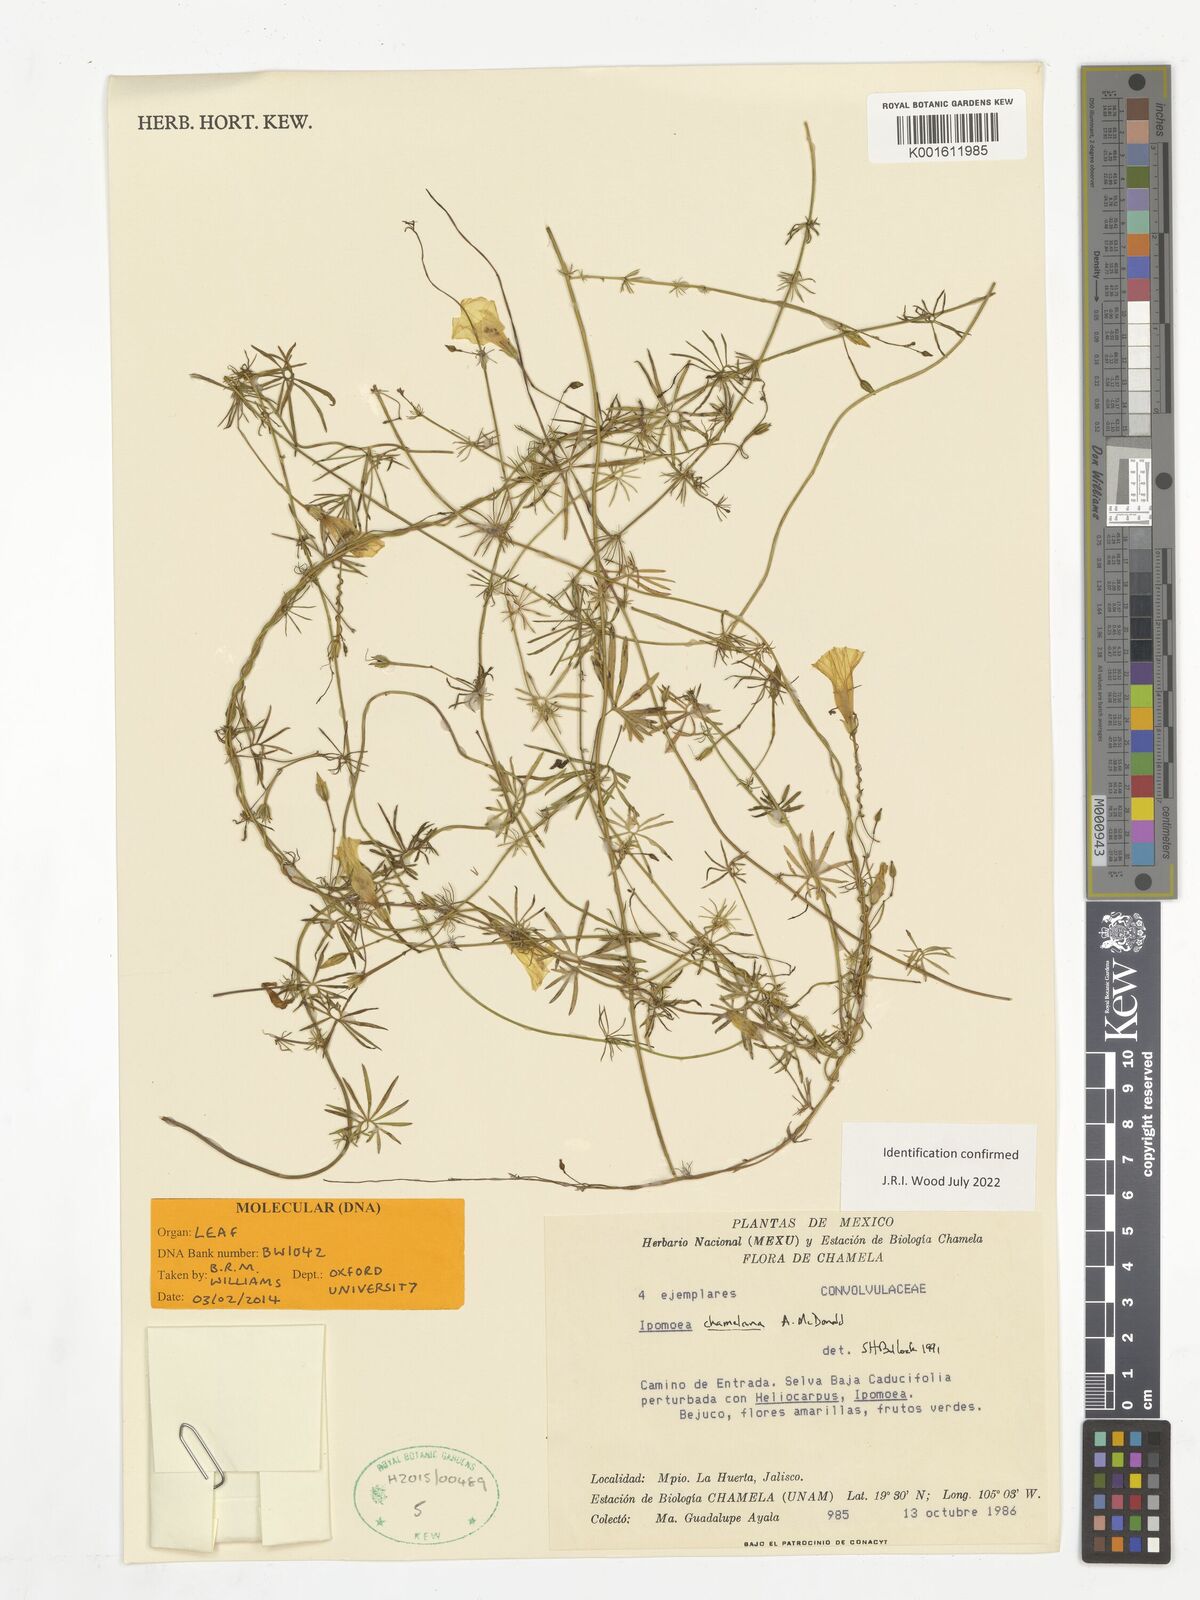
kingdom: Plantae
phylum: Tracheophyta
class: Magnoliopsida
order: Solanales
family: Convolvulaceae
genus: Ipomoea
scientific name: Ipomoea chamelana
